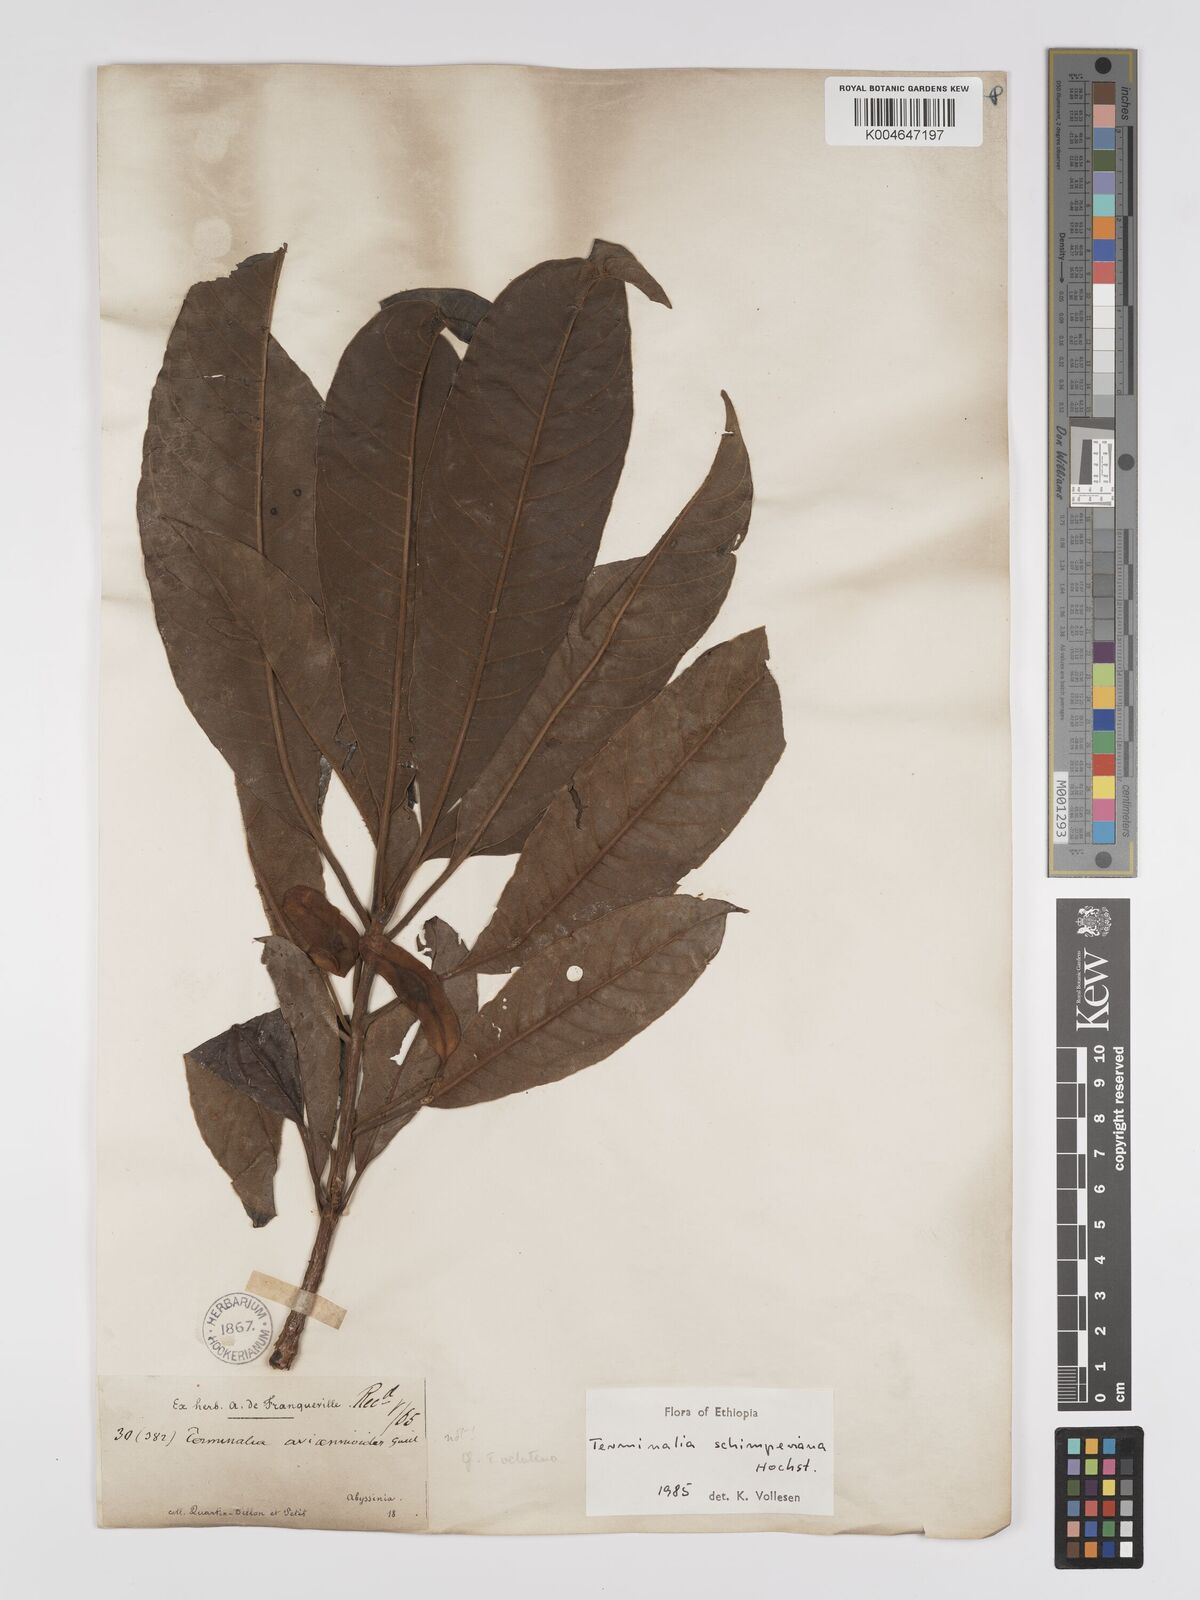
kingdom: Plantae
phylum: Tracheophyta
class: Magnoliopsida
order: Myrtales
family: Combretaceae
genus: Terminalia
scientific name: Terminalia schimperiana
